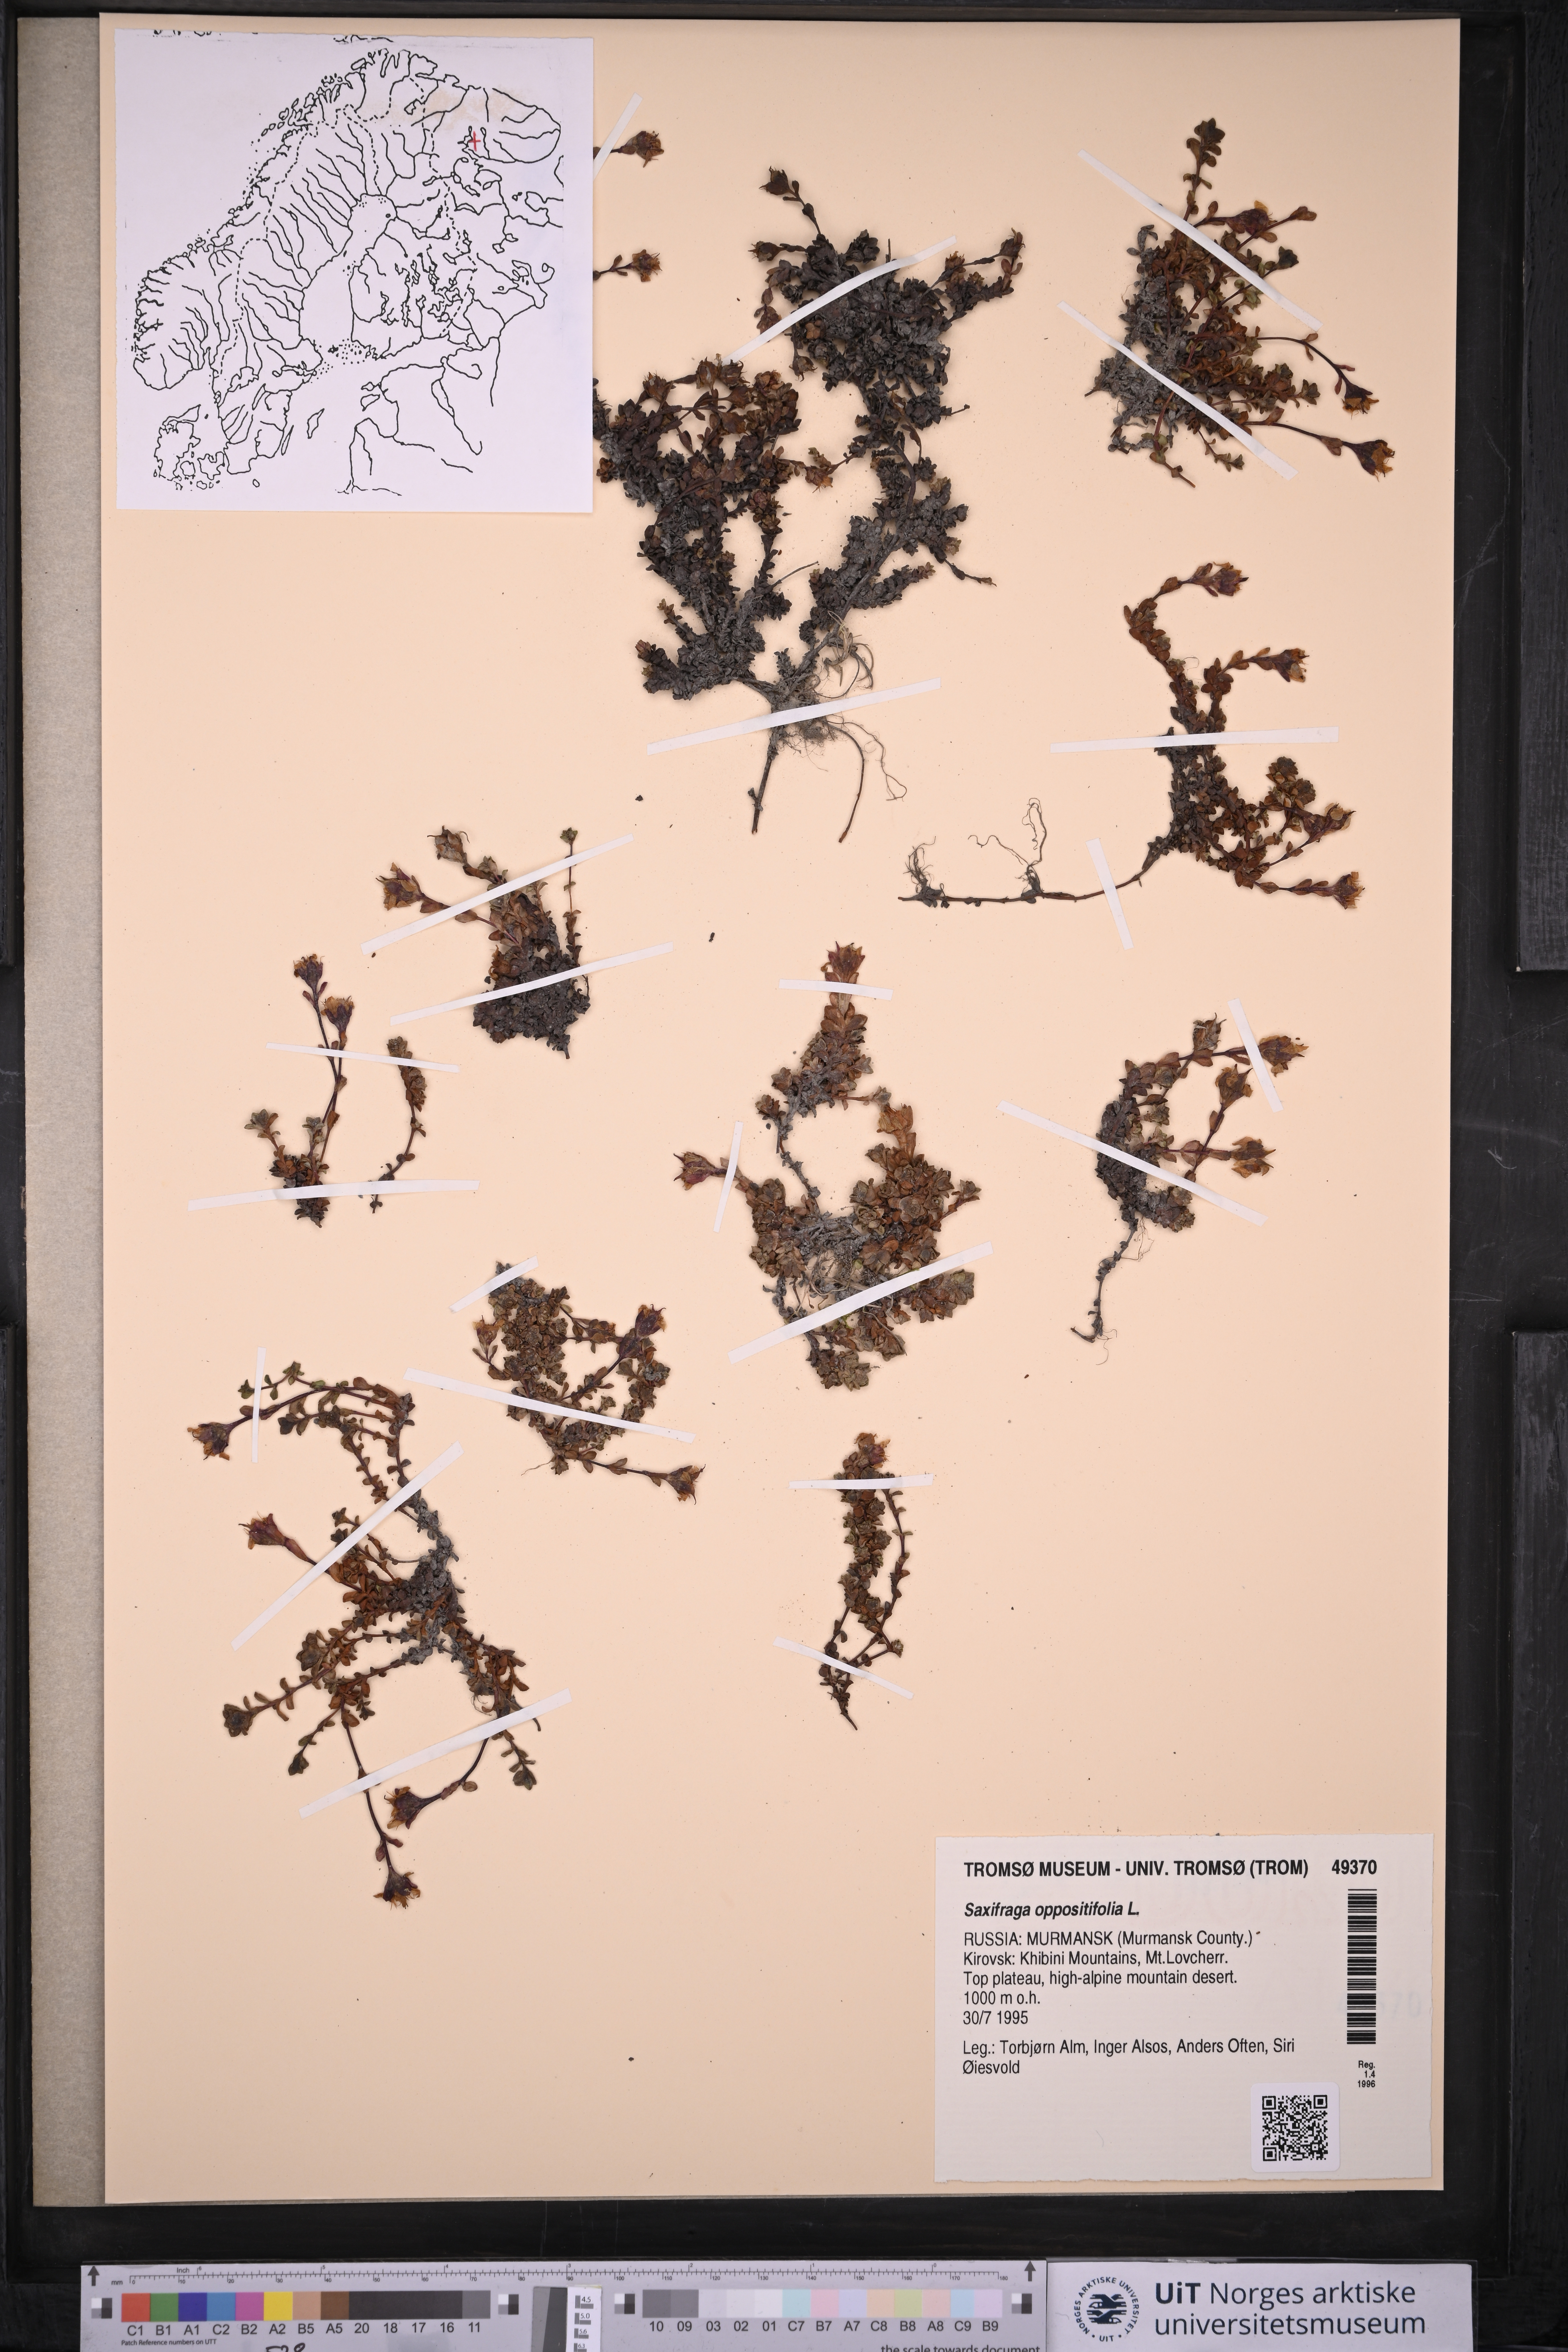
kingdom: Plantae
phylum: Tracheophyta
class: Magnoliopsida
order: Saxifragales
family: Saxifragaceae
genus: Saxifraga
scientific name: Saxifraga oppositifolia
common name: Purple saxifrage
